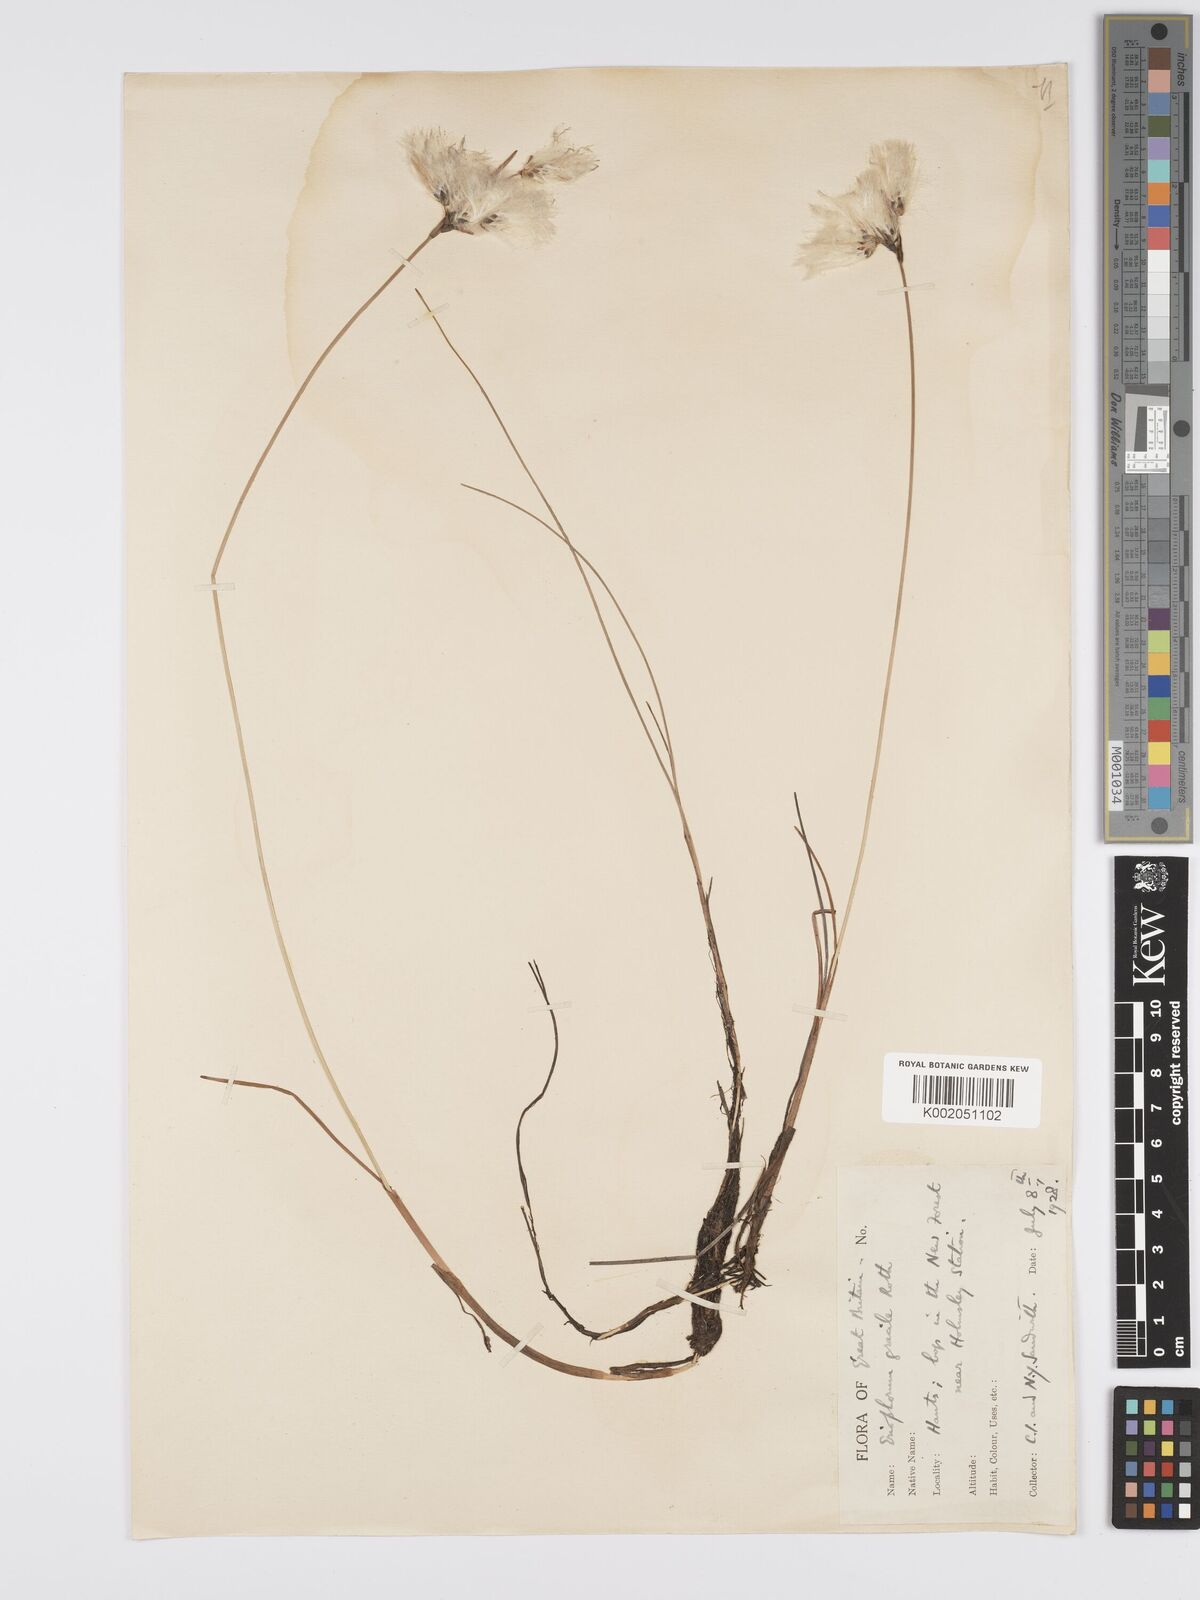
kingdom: Plantae
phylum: Tracheophyta
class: Liliopsida
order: Poales
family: Cyperaceae
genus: Eriophorum
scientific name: Eriophorum gracile
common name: Slender cottongrass
